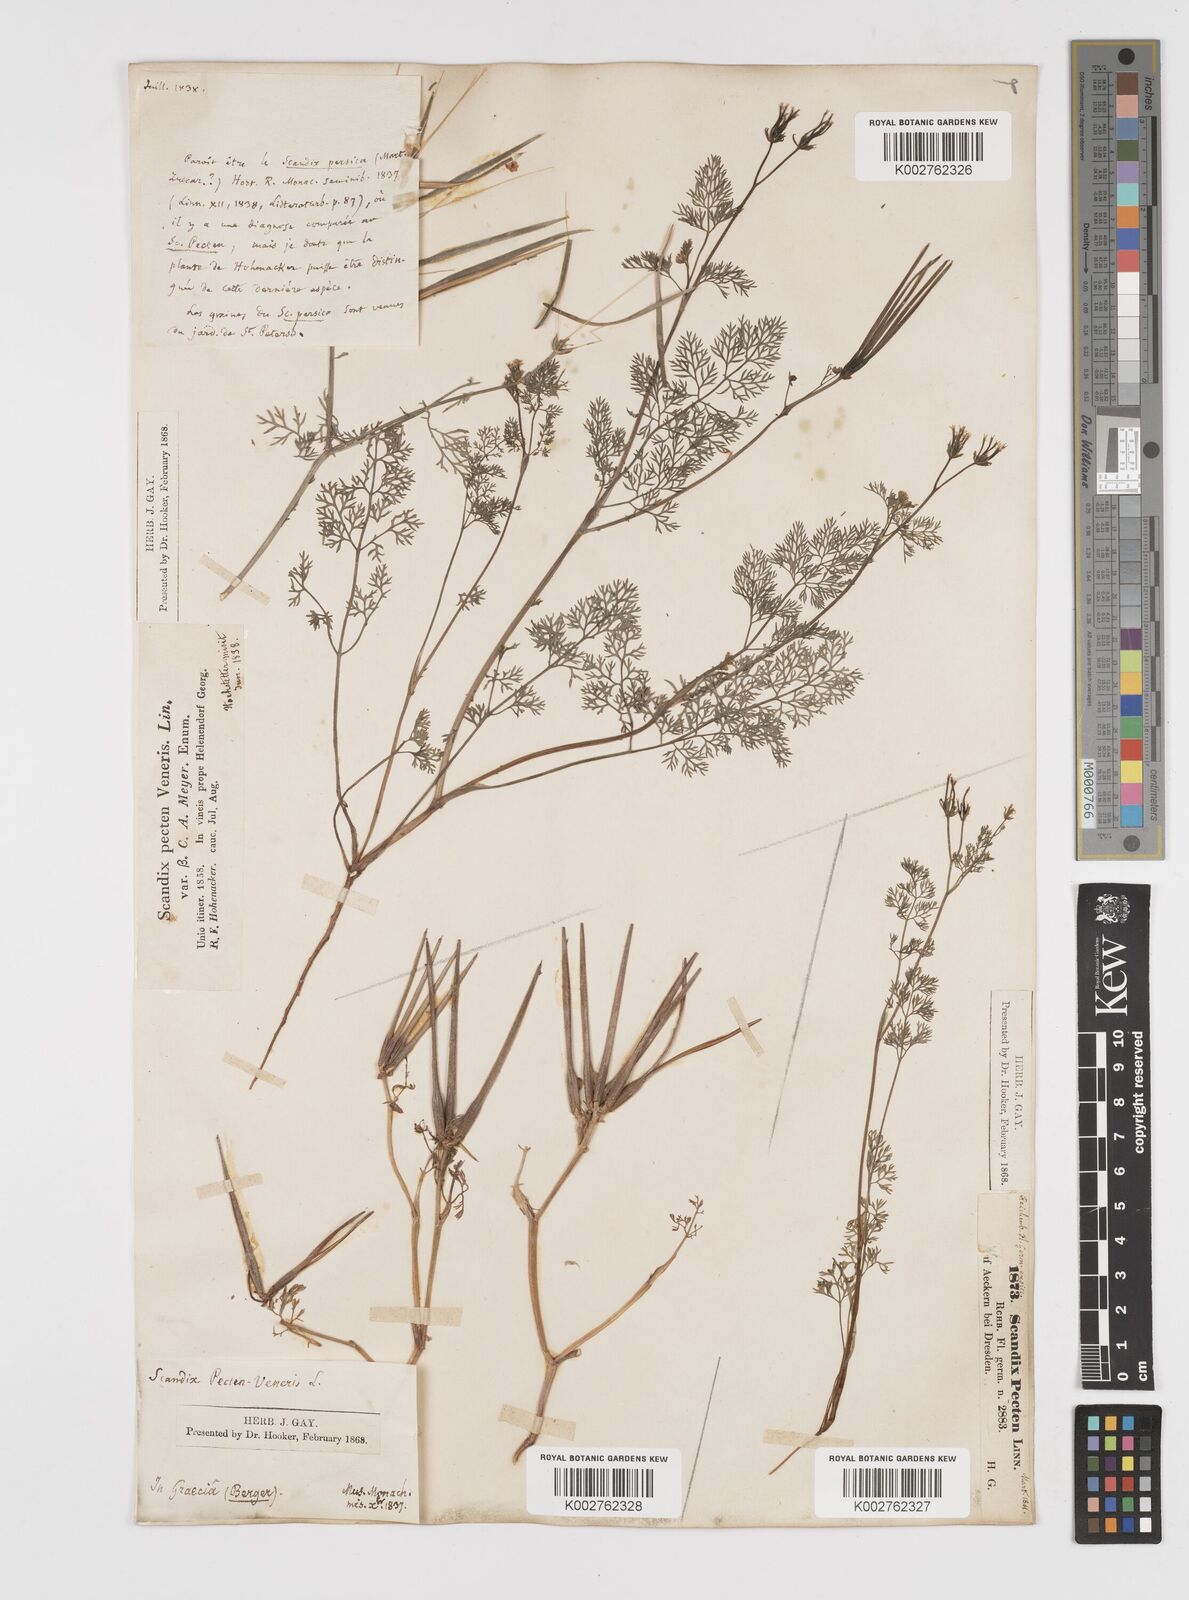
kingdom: Plantae
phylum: Tracheophyta
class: Magnoliopsida
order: Apiales
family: Apiaceae
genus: Scandix
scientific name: Scandix pecten-veneris
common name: Shepherd's-needle
